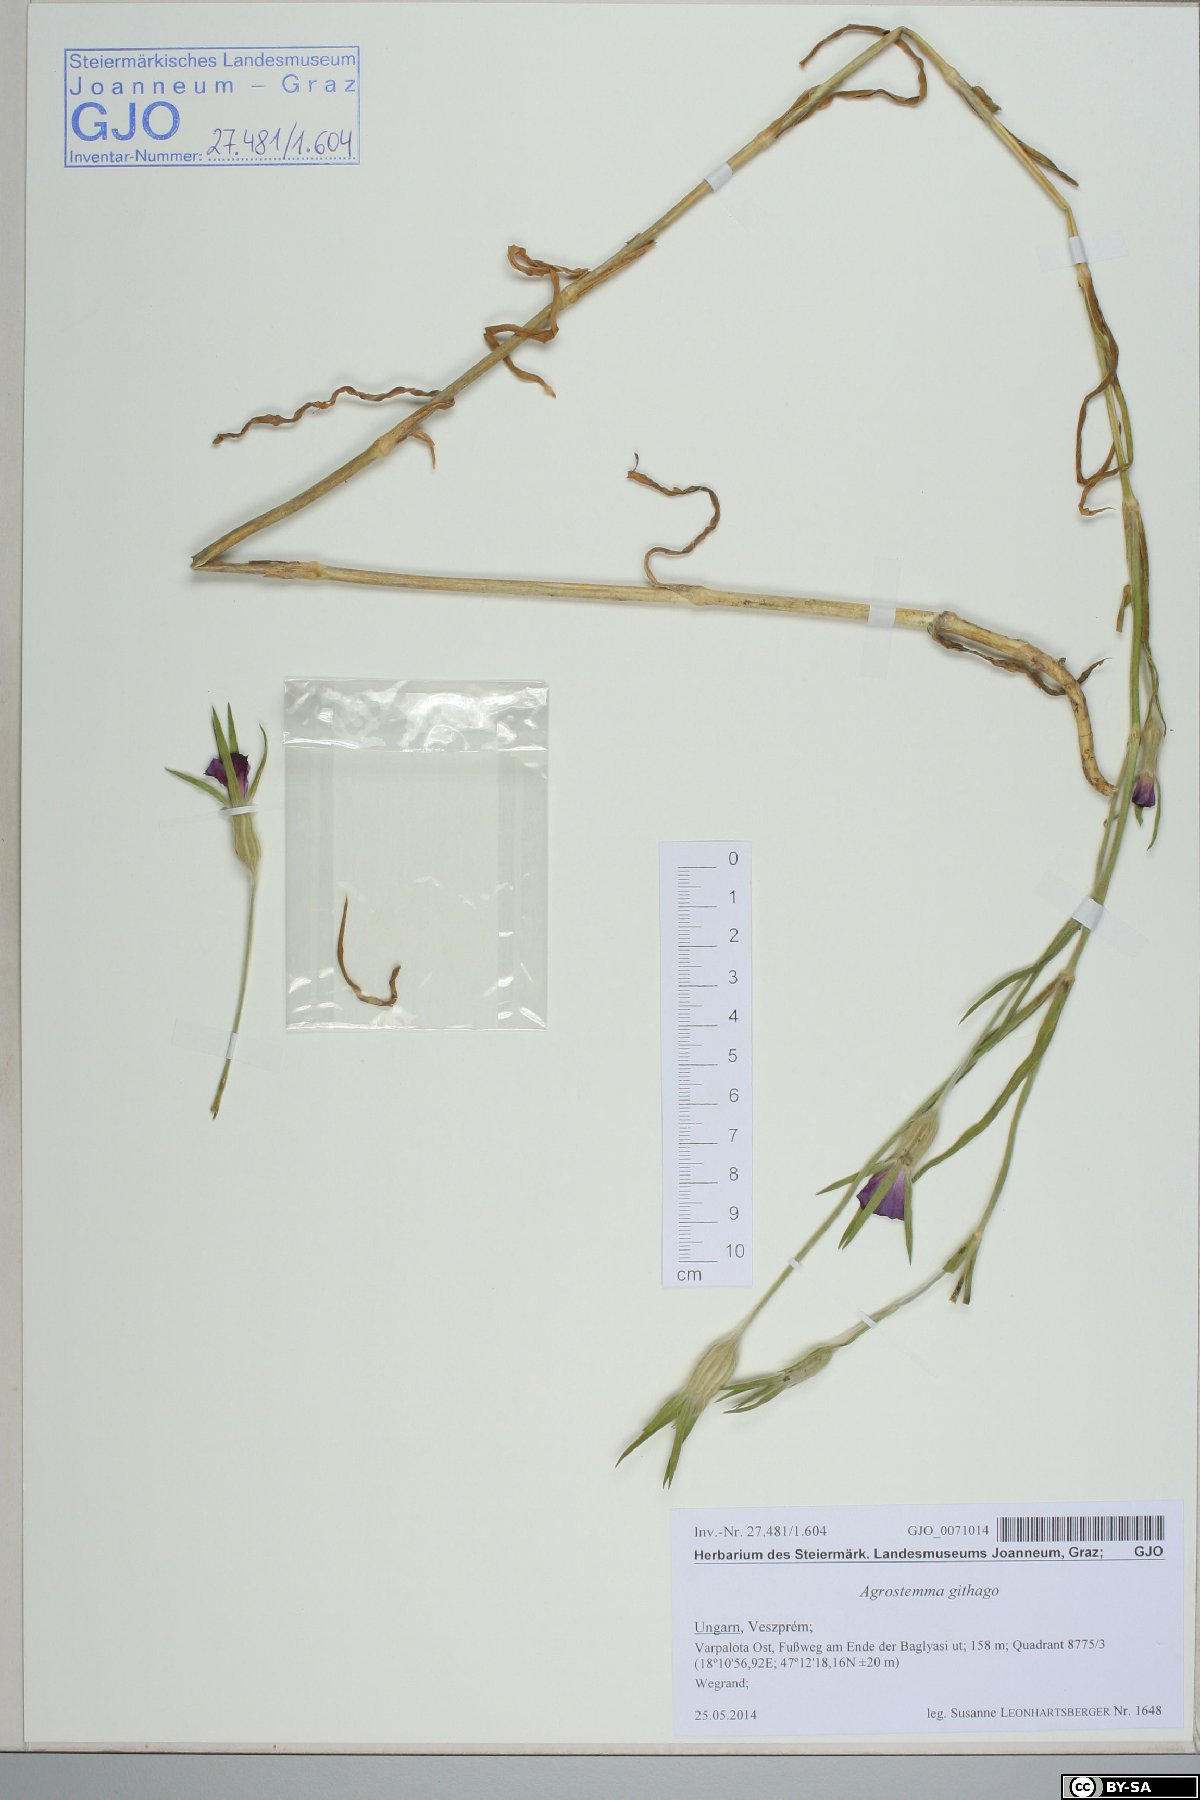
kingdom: Plantae
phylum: Tracheophyta
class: Magnoliopsida
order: Caryophyllales
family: Caryophyllaceae
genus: Agrostemma
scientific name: Agrostemma githago
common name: Common corncockle
